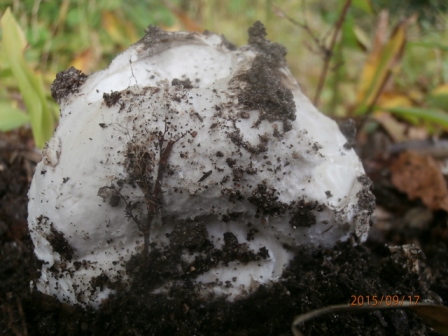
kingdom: Fungi
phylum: Basidiomycota
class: Agaricomycetes
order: Agaricales
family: Amanitaceae
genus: Amanita
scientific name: Amanita
